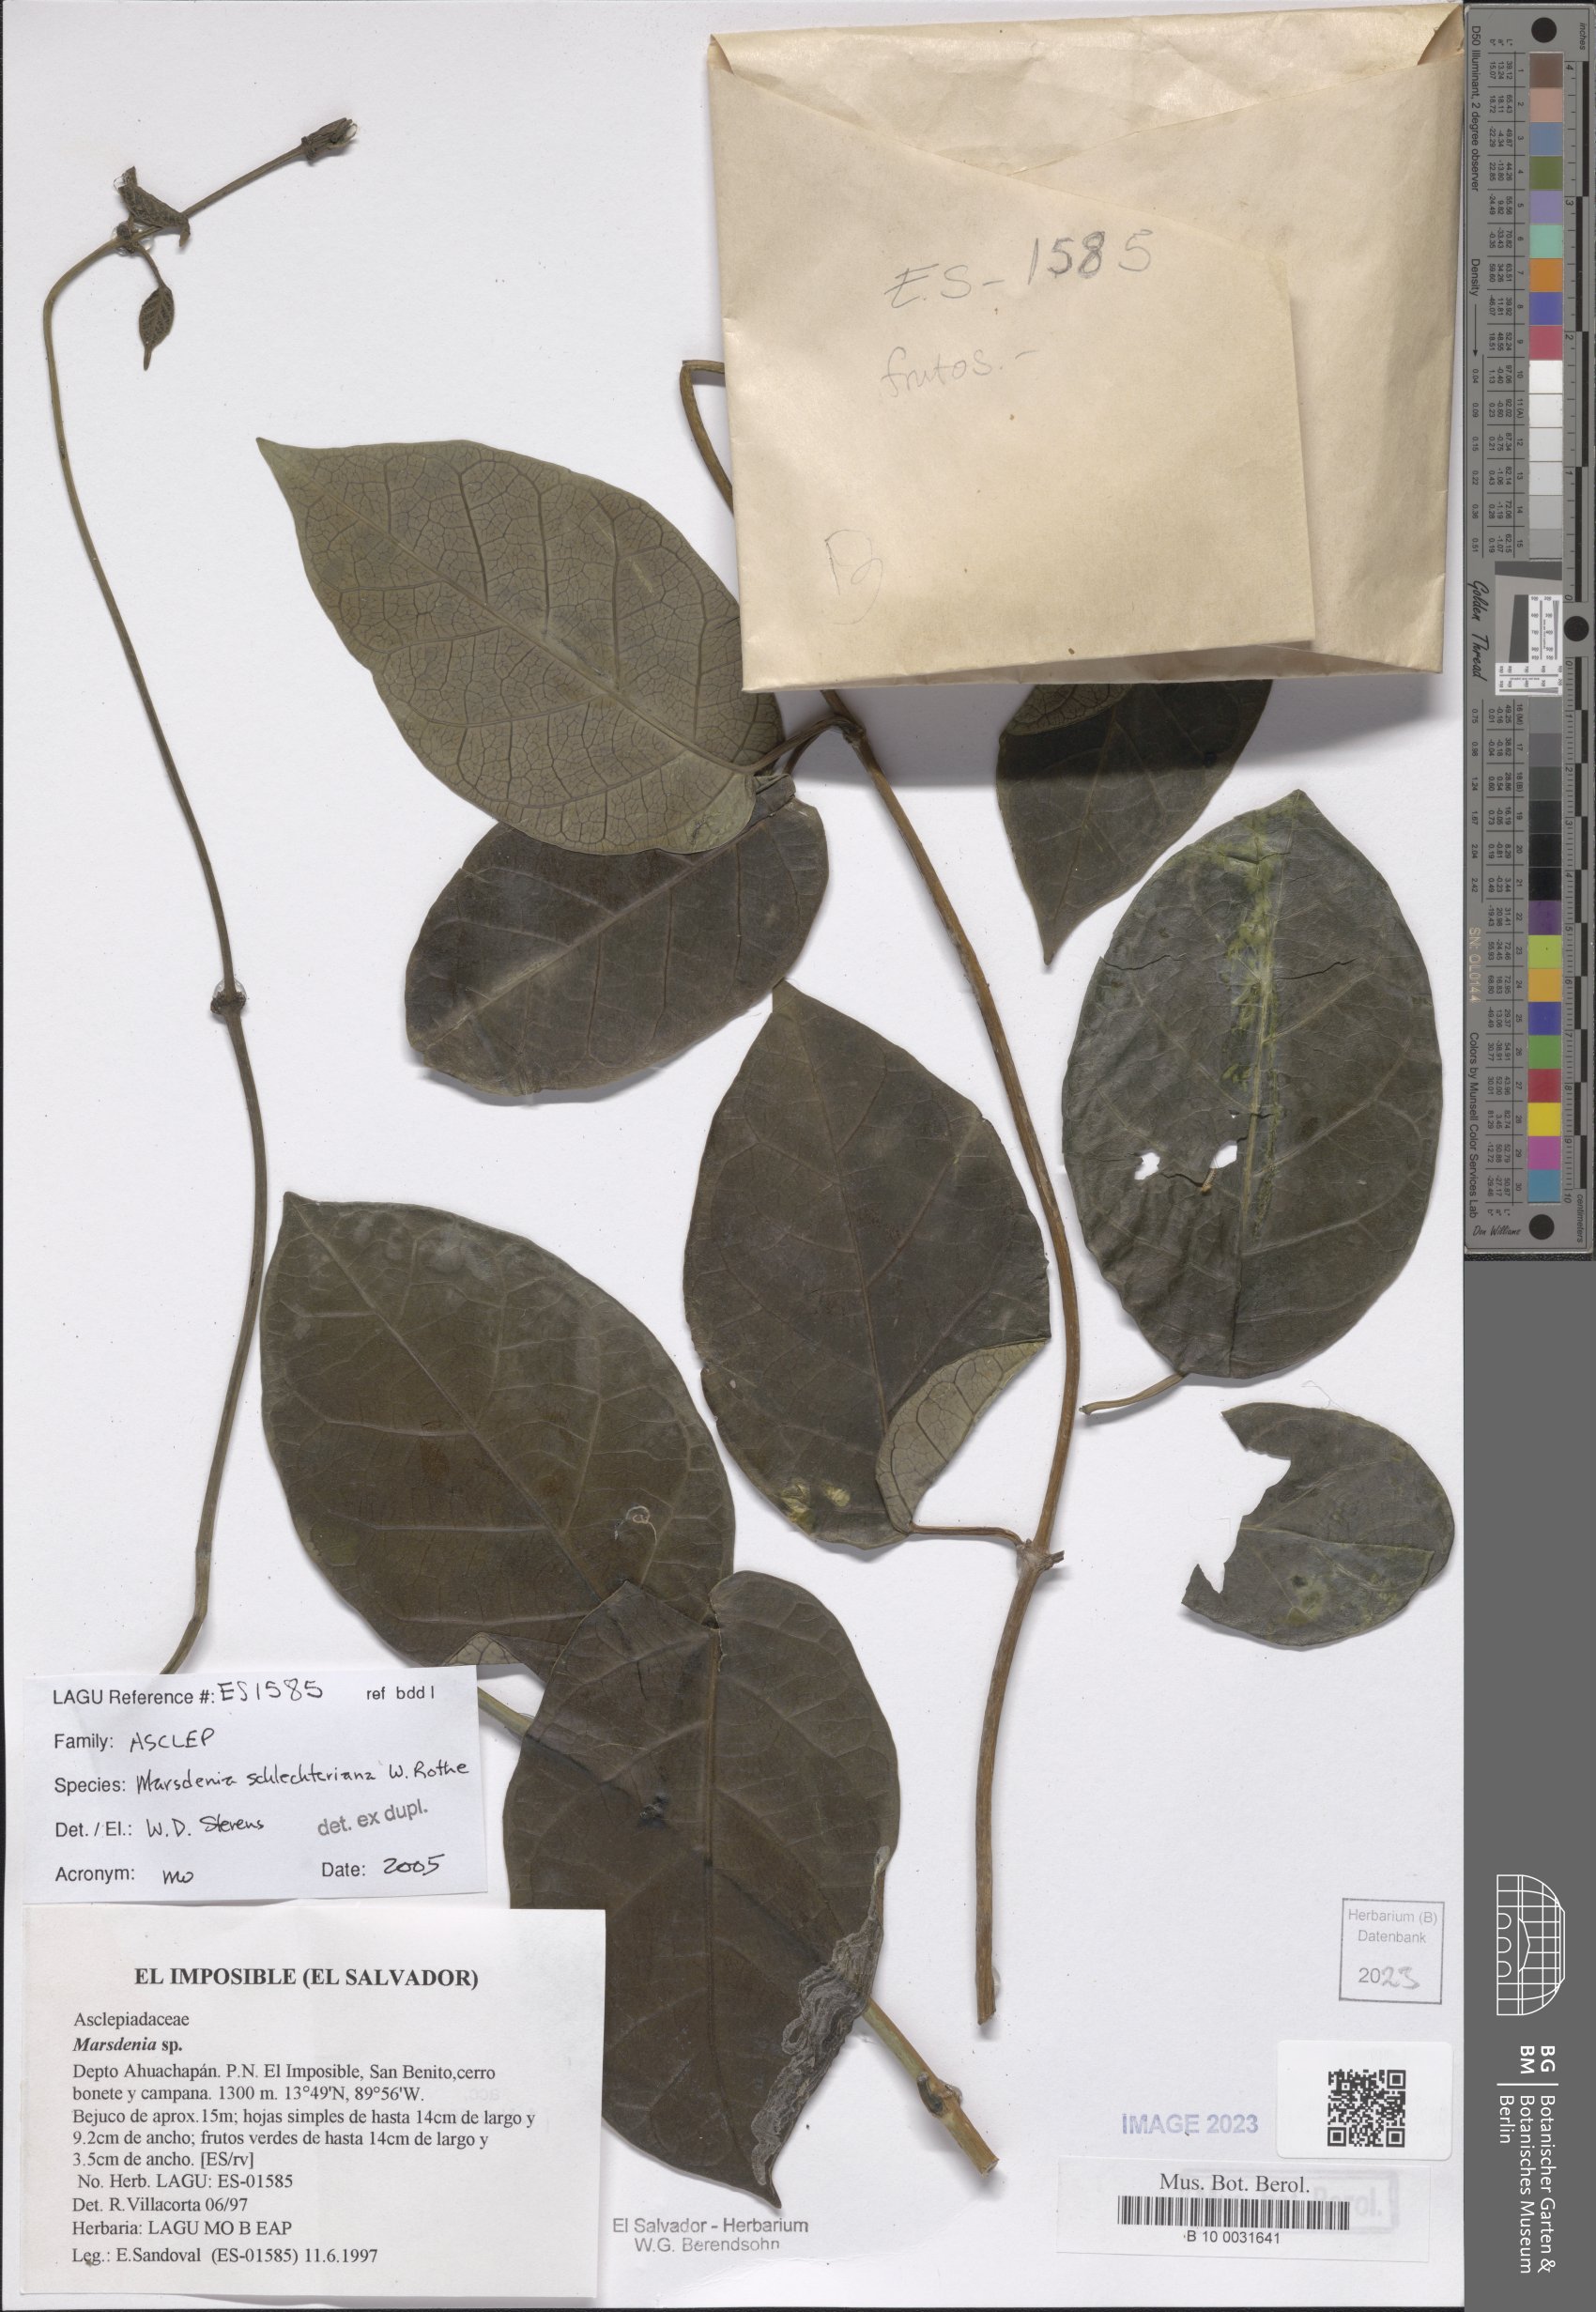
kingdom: Plantae
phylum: Tracheophyta
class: Magnoliopsida
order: Gentianales
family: Apocynaceae
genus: Ruehssia
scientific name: Ruehssia schlechteriana
